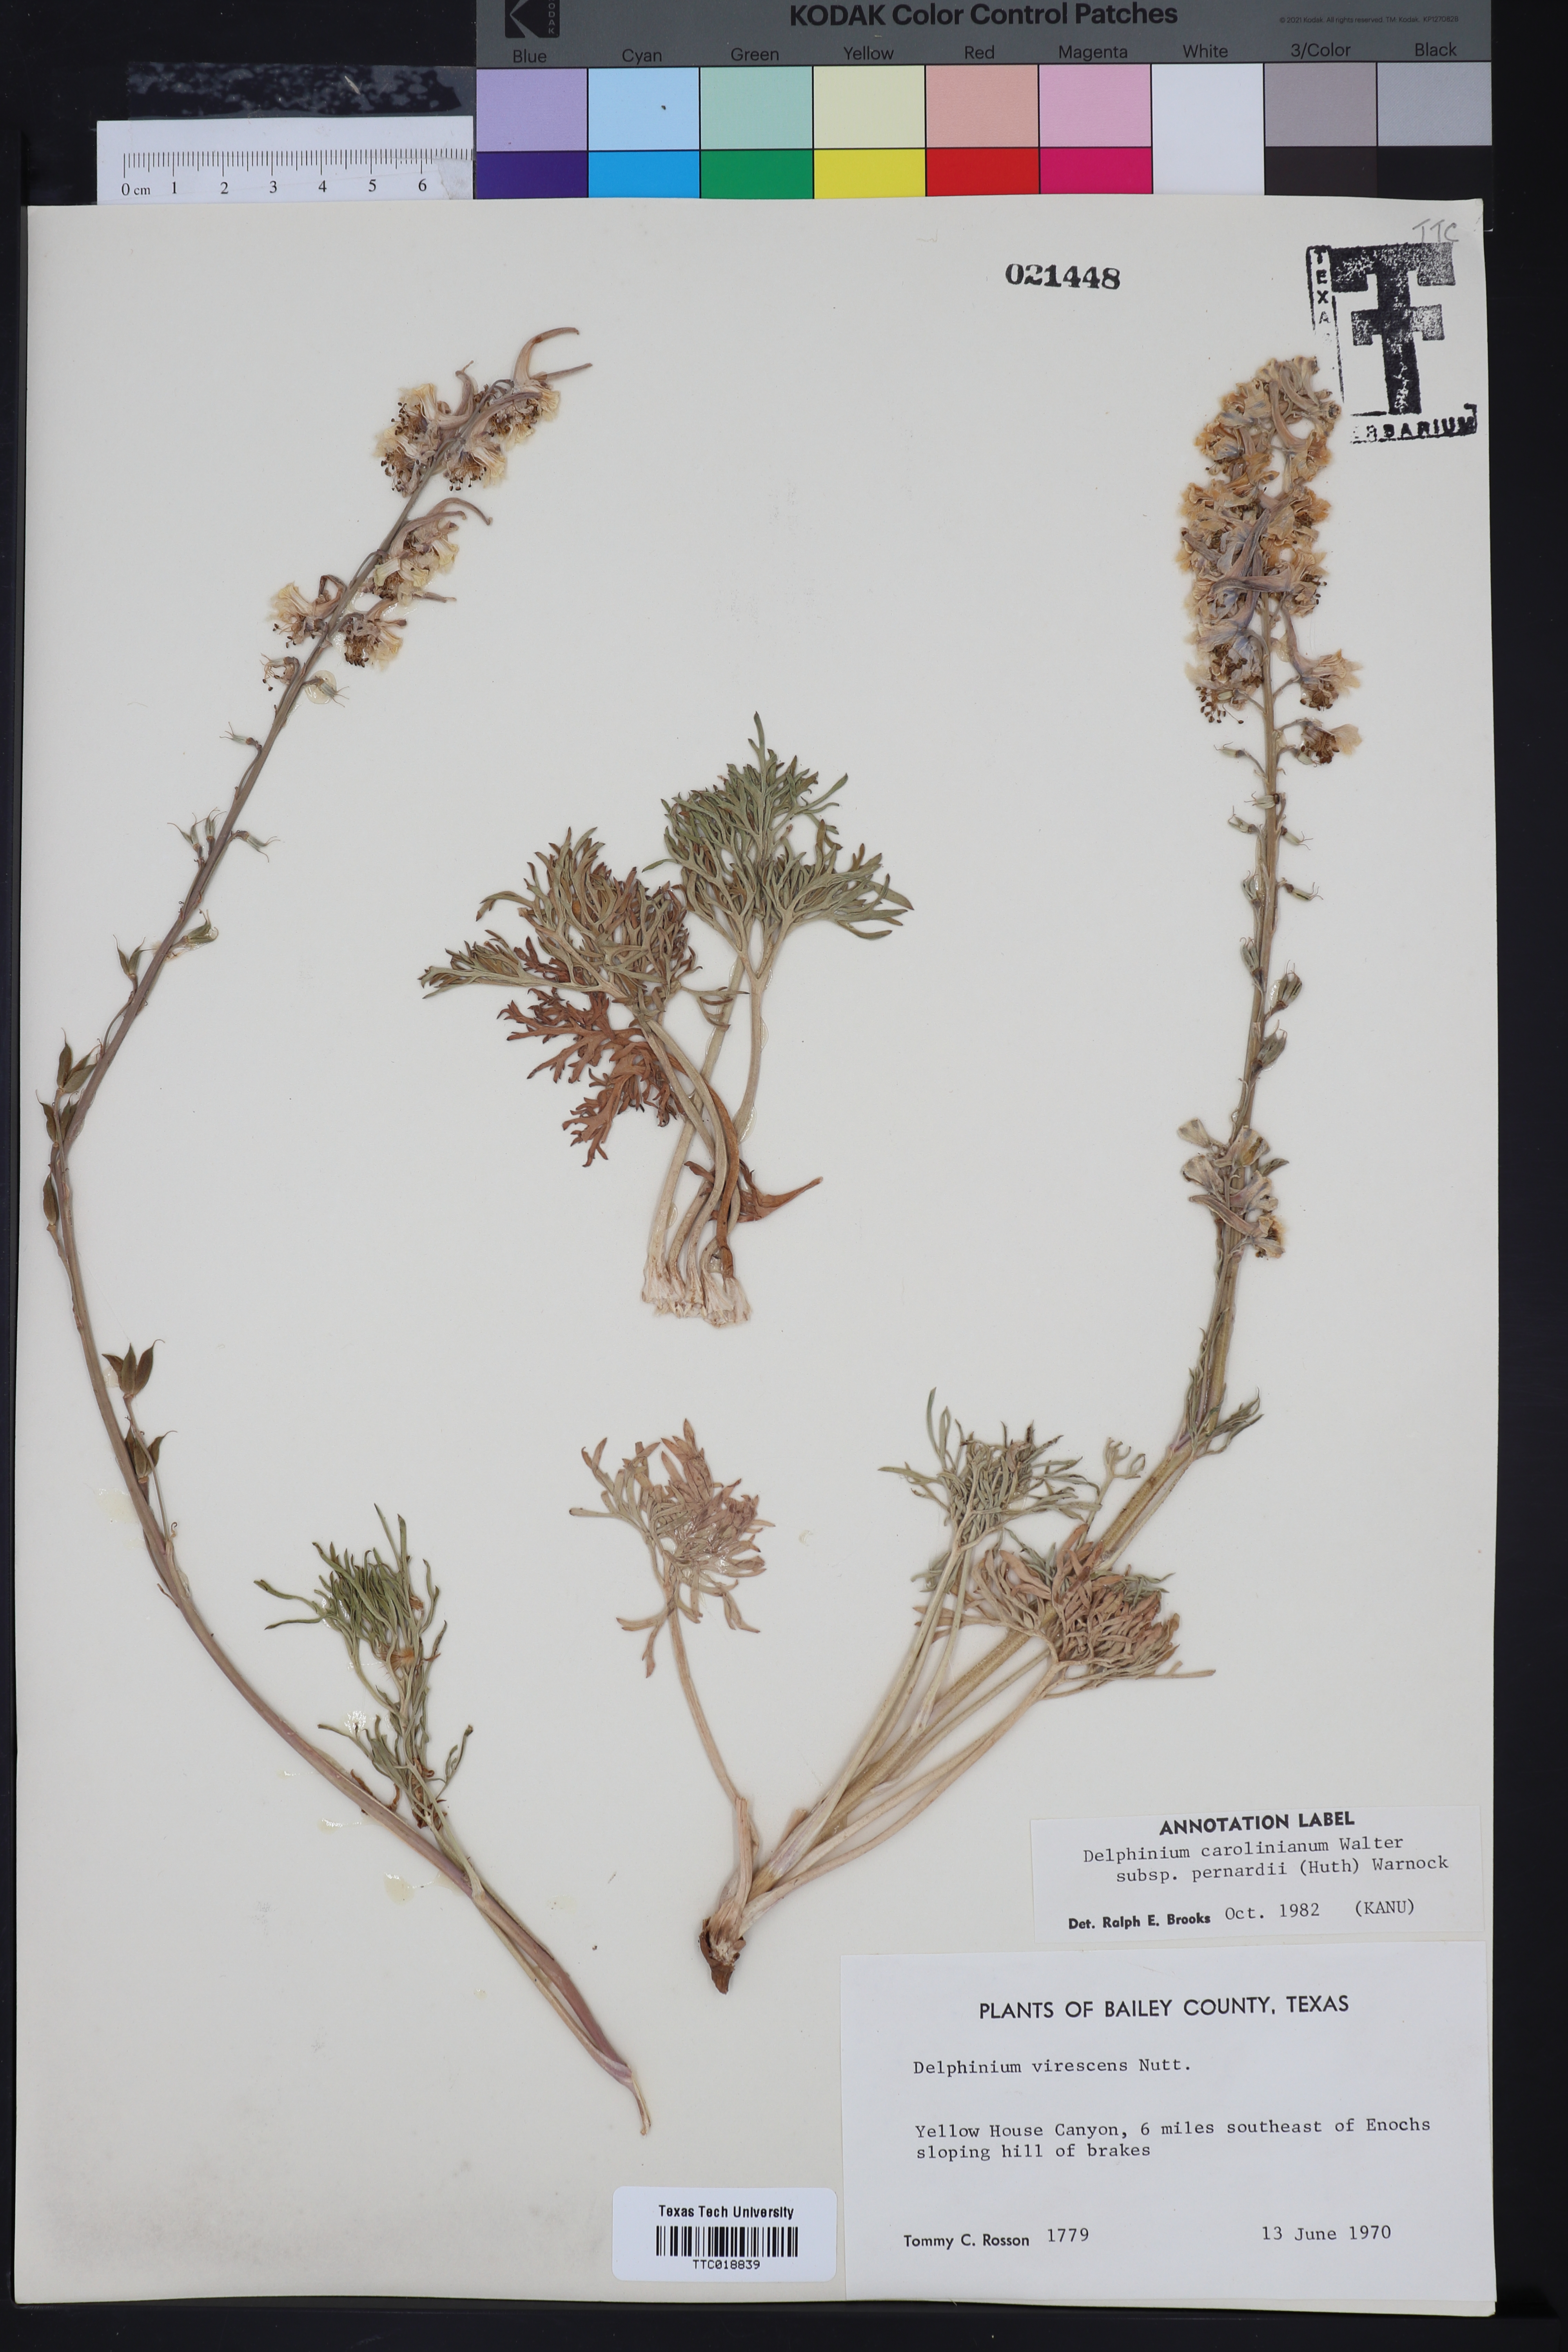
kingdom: Plantae
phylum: Tracheophyta
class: Magnoliopsida
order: Ranunculales
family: Ranunculaceae
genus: Delphinium
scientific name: Delphinium carolinianum
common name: Carolina larkspur
